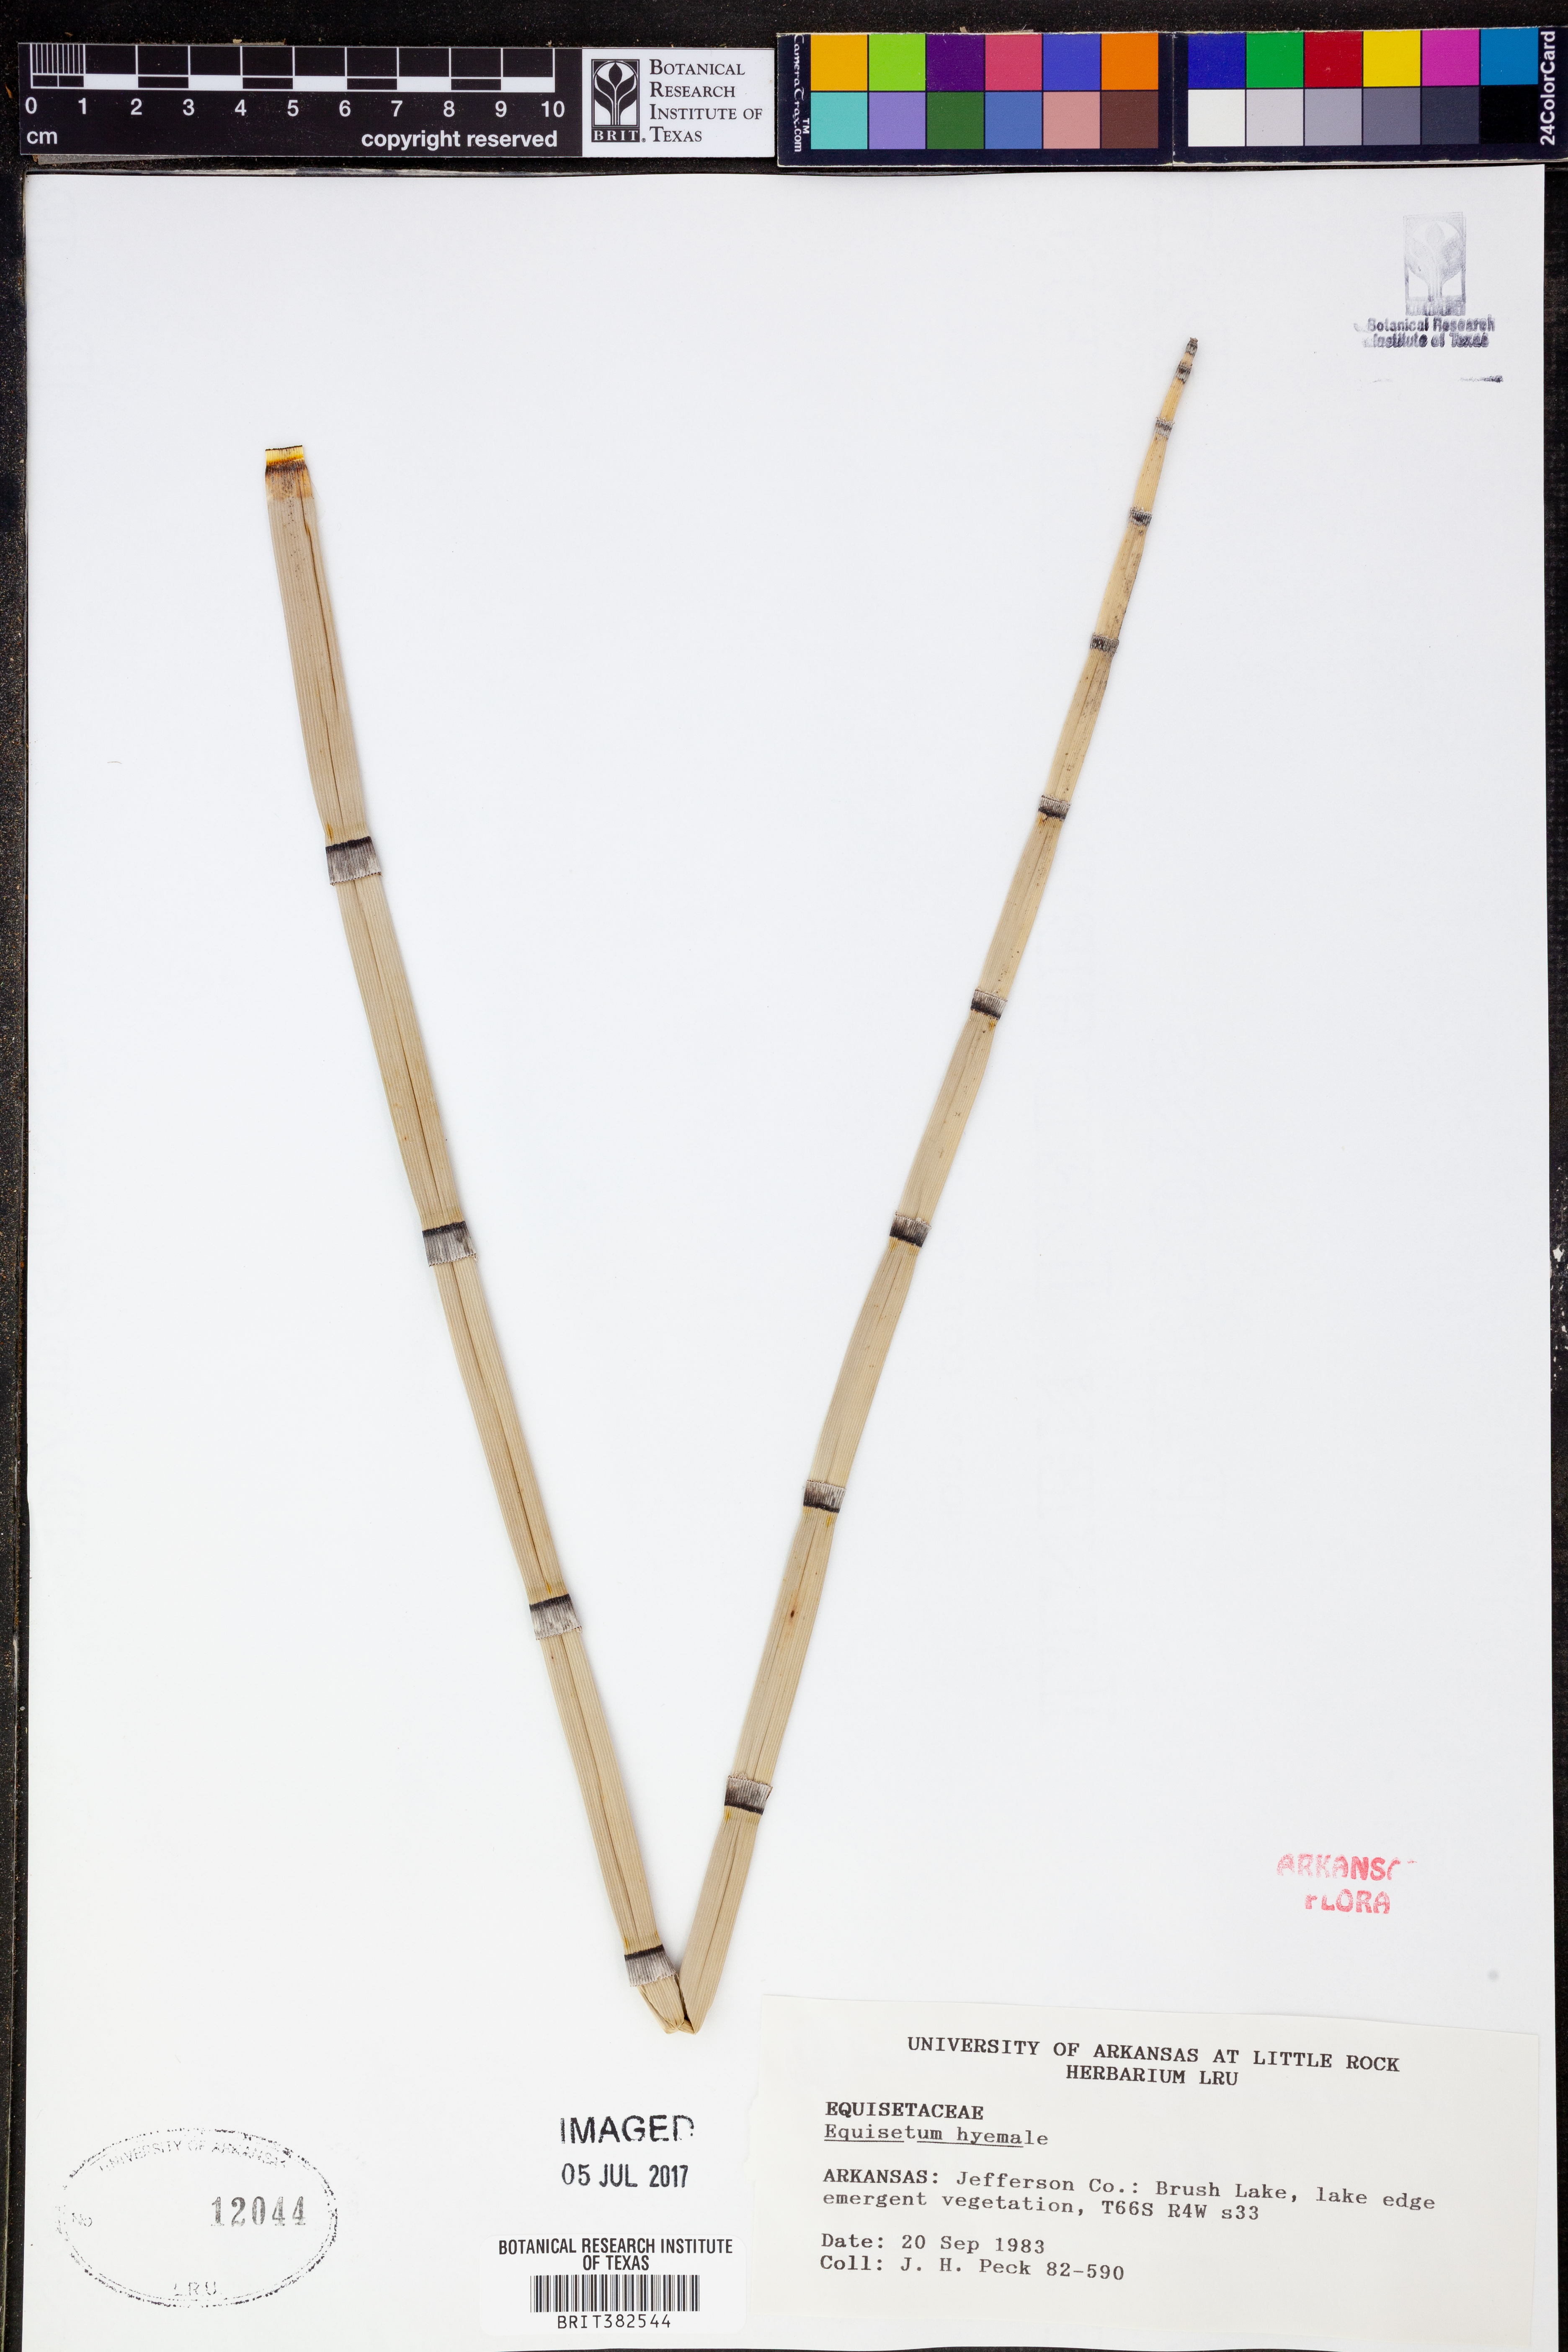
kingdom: Plantae
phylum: Tracheophyta
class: Polypodiopsida
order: Equisetales
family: Equisetaceae
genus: Equisetum
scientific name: Equisetum hyemale
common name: Rough horsetail
